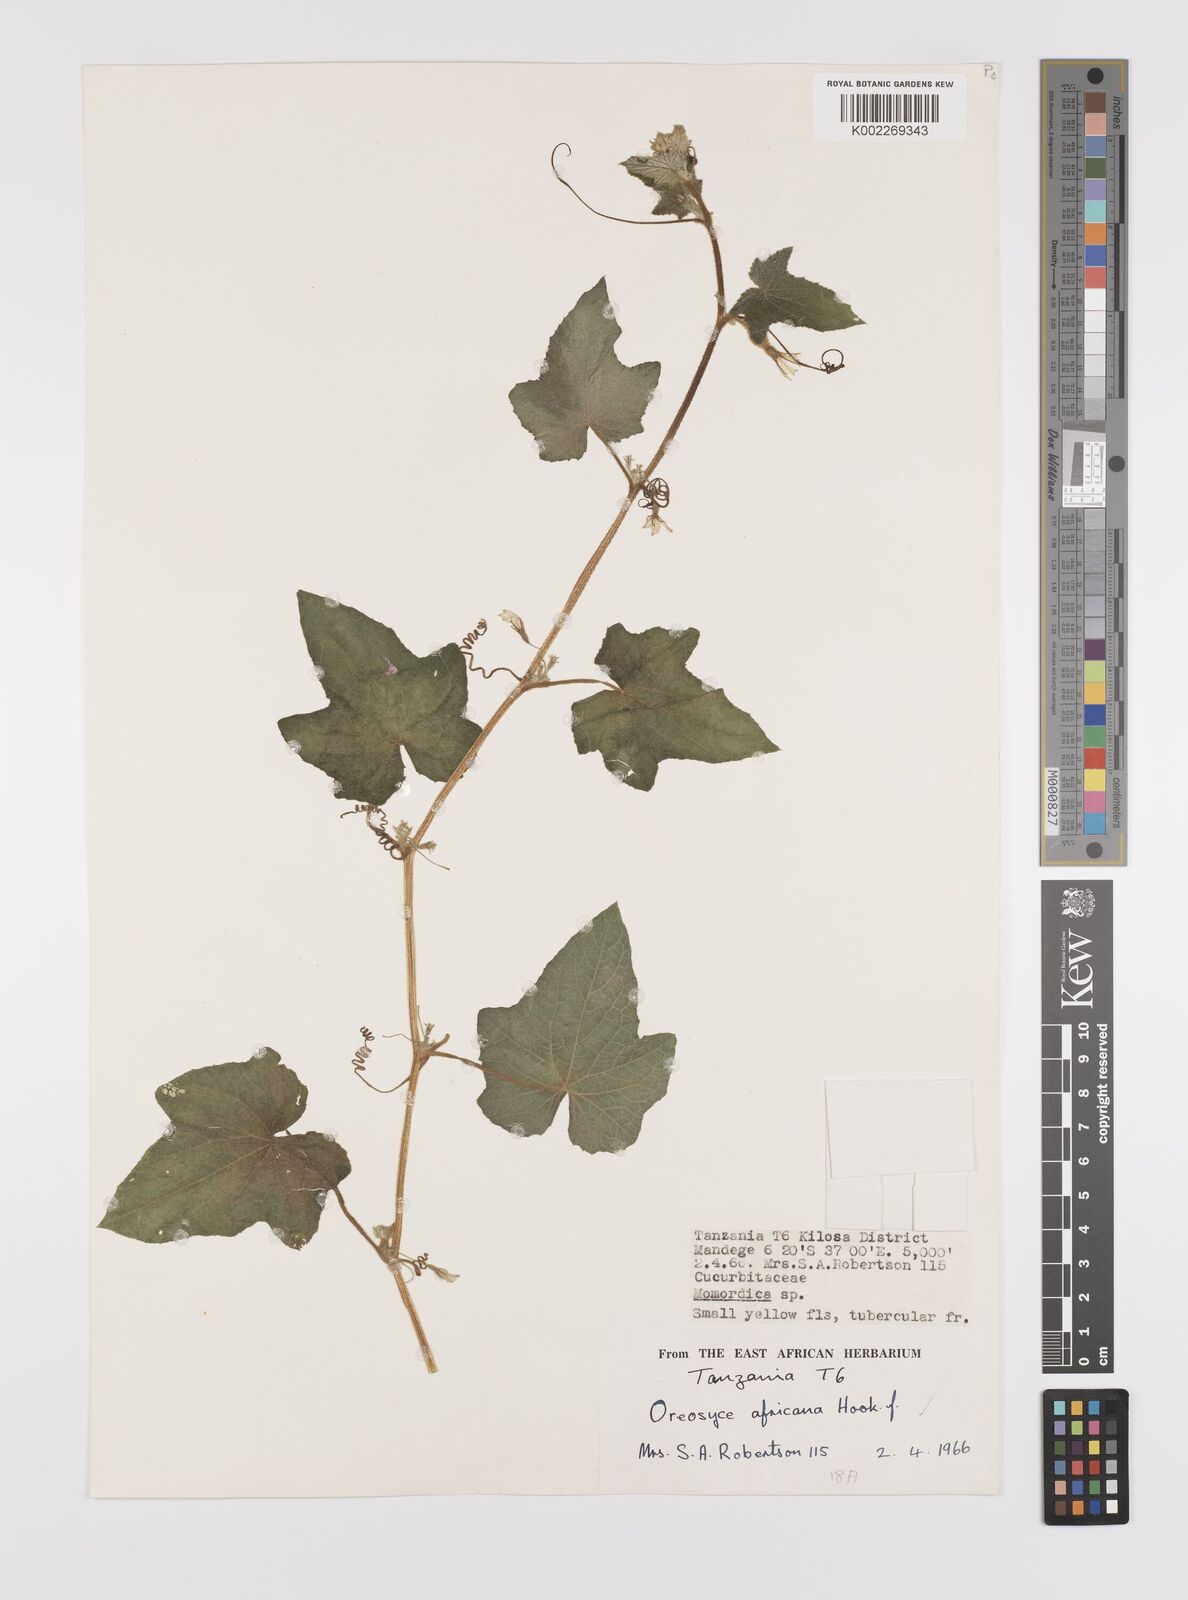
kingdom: Plantae
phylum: Tracheophyta
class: Magnoliopsida
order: Cucurbitales
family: Cucurbitaceae
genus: Cucumis
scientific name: Cucumis oreosyce
